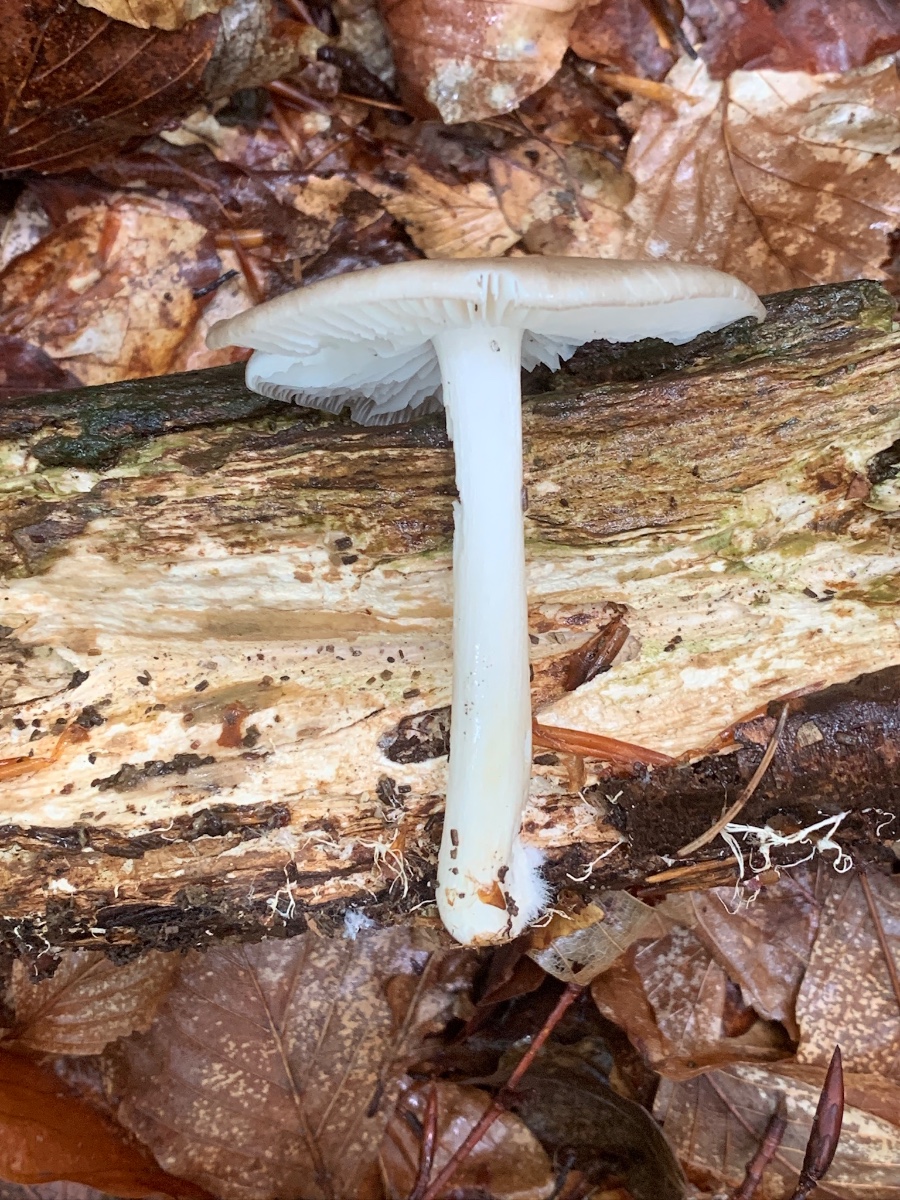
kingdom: Fungi
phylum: Basidiomycota
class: Agaricomycetes
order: Agaricales
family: Tricholomataceae
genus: Megacollybia
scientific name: Megacollybia platyphylla
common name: bredbladet væbnerhat
